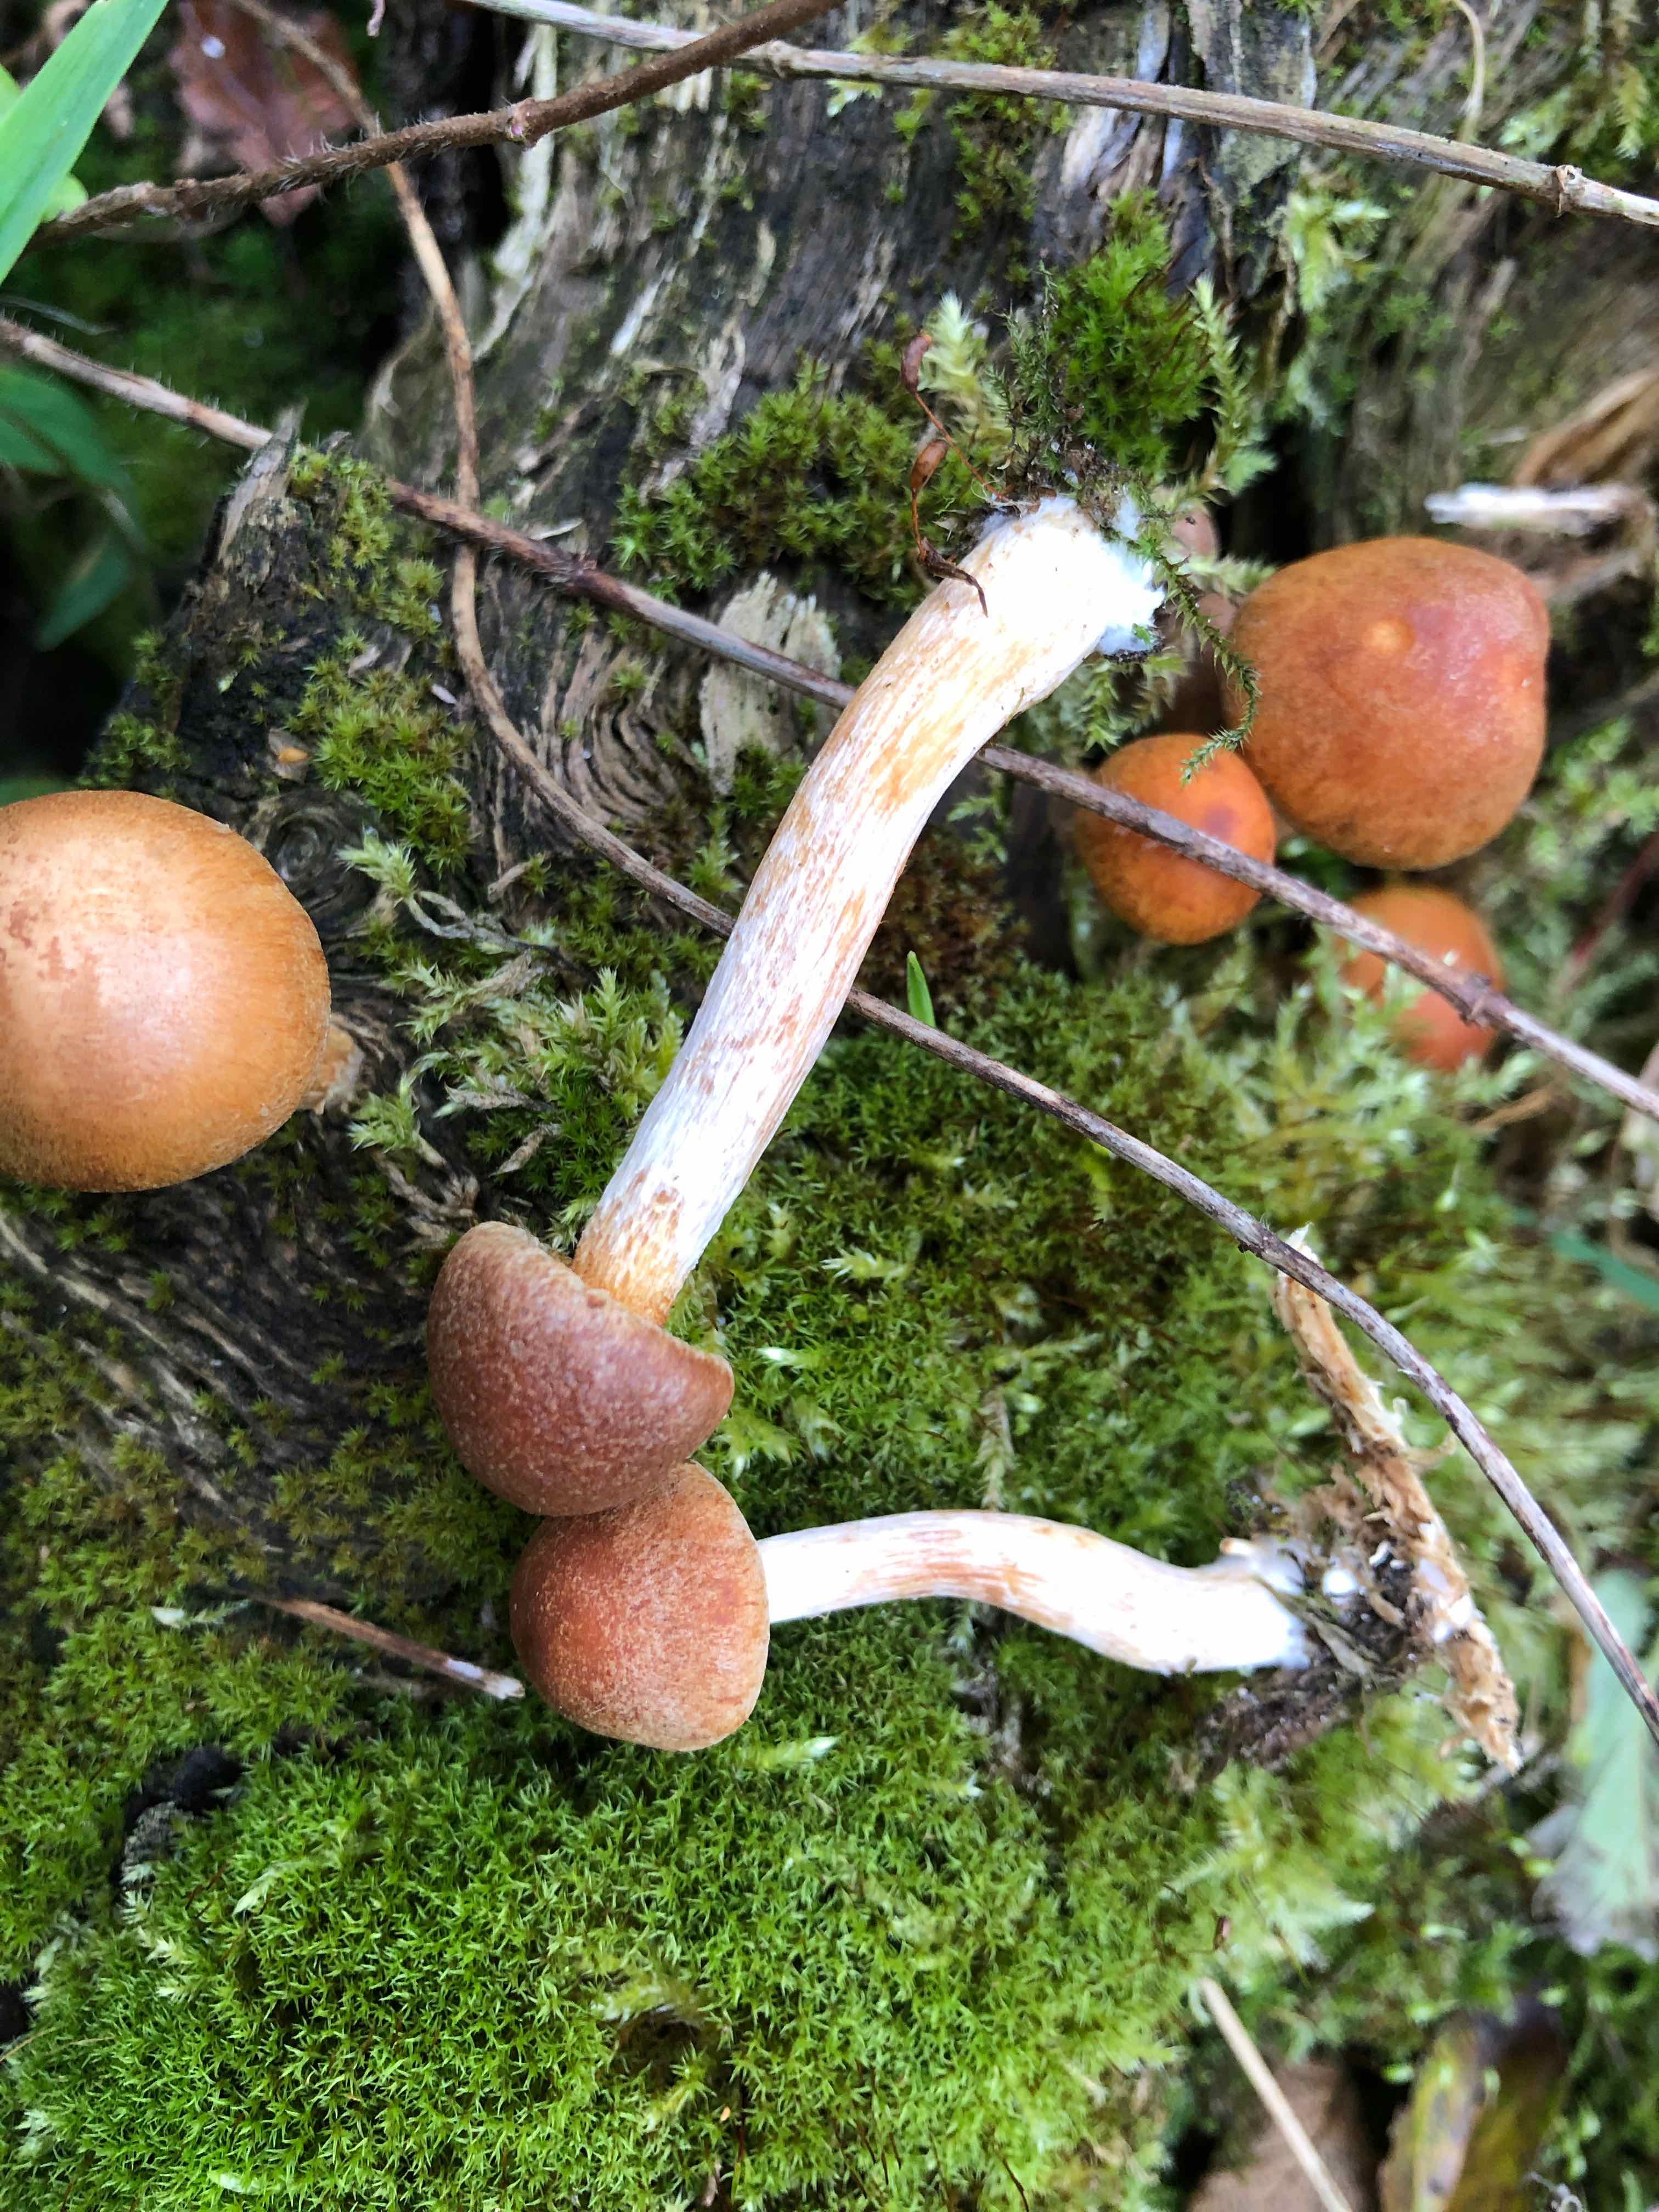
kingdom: Fungi
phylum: Basidiomycota
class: Agaricomycetes
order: Agaricales
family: Hymenogastraceae
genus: Gymnopilus
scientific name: Gymnopilus penetrans
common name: plettet flammehat
